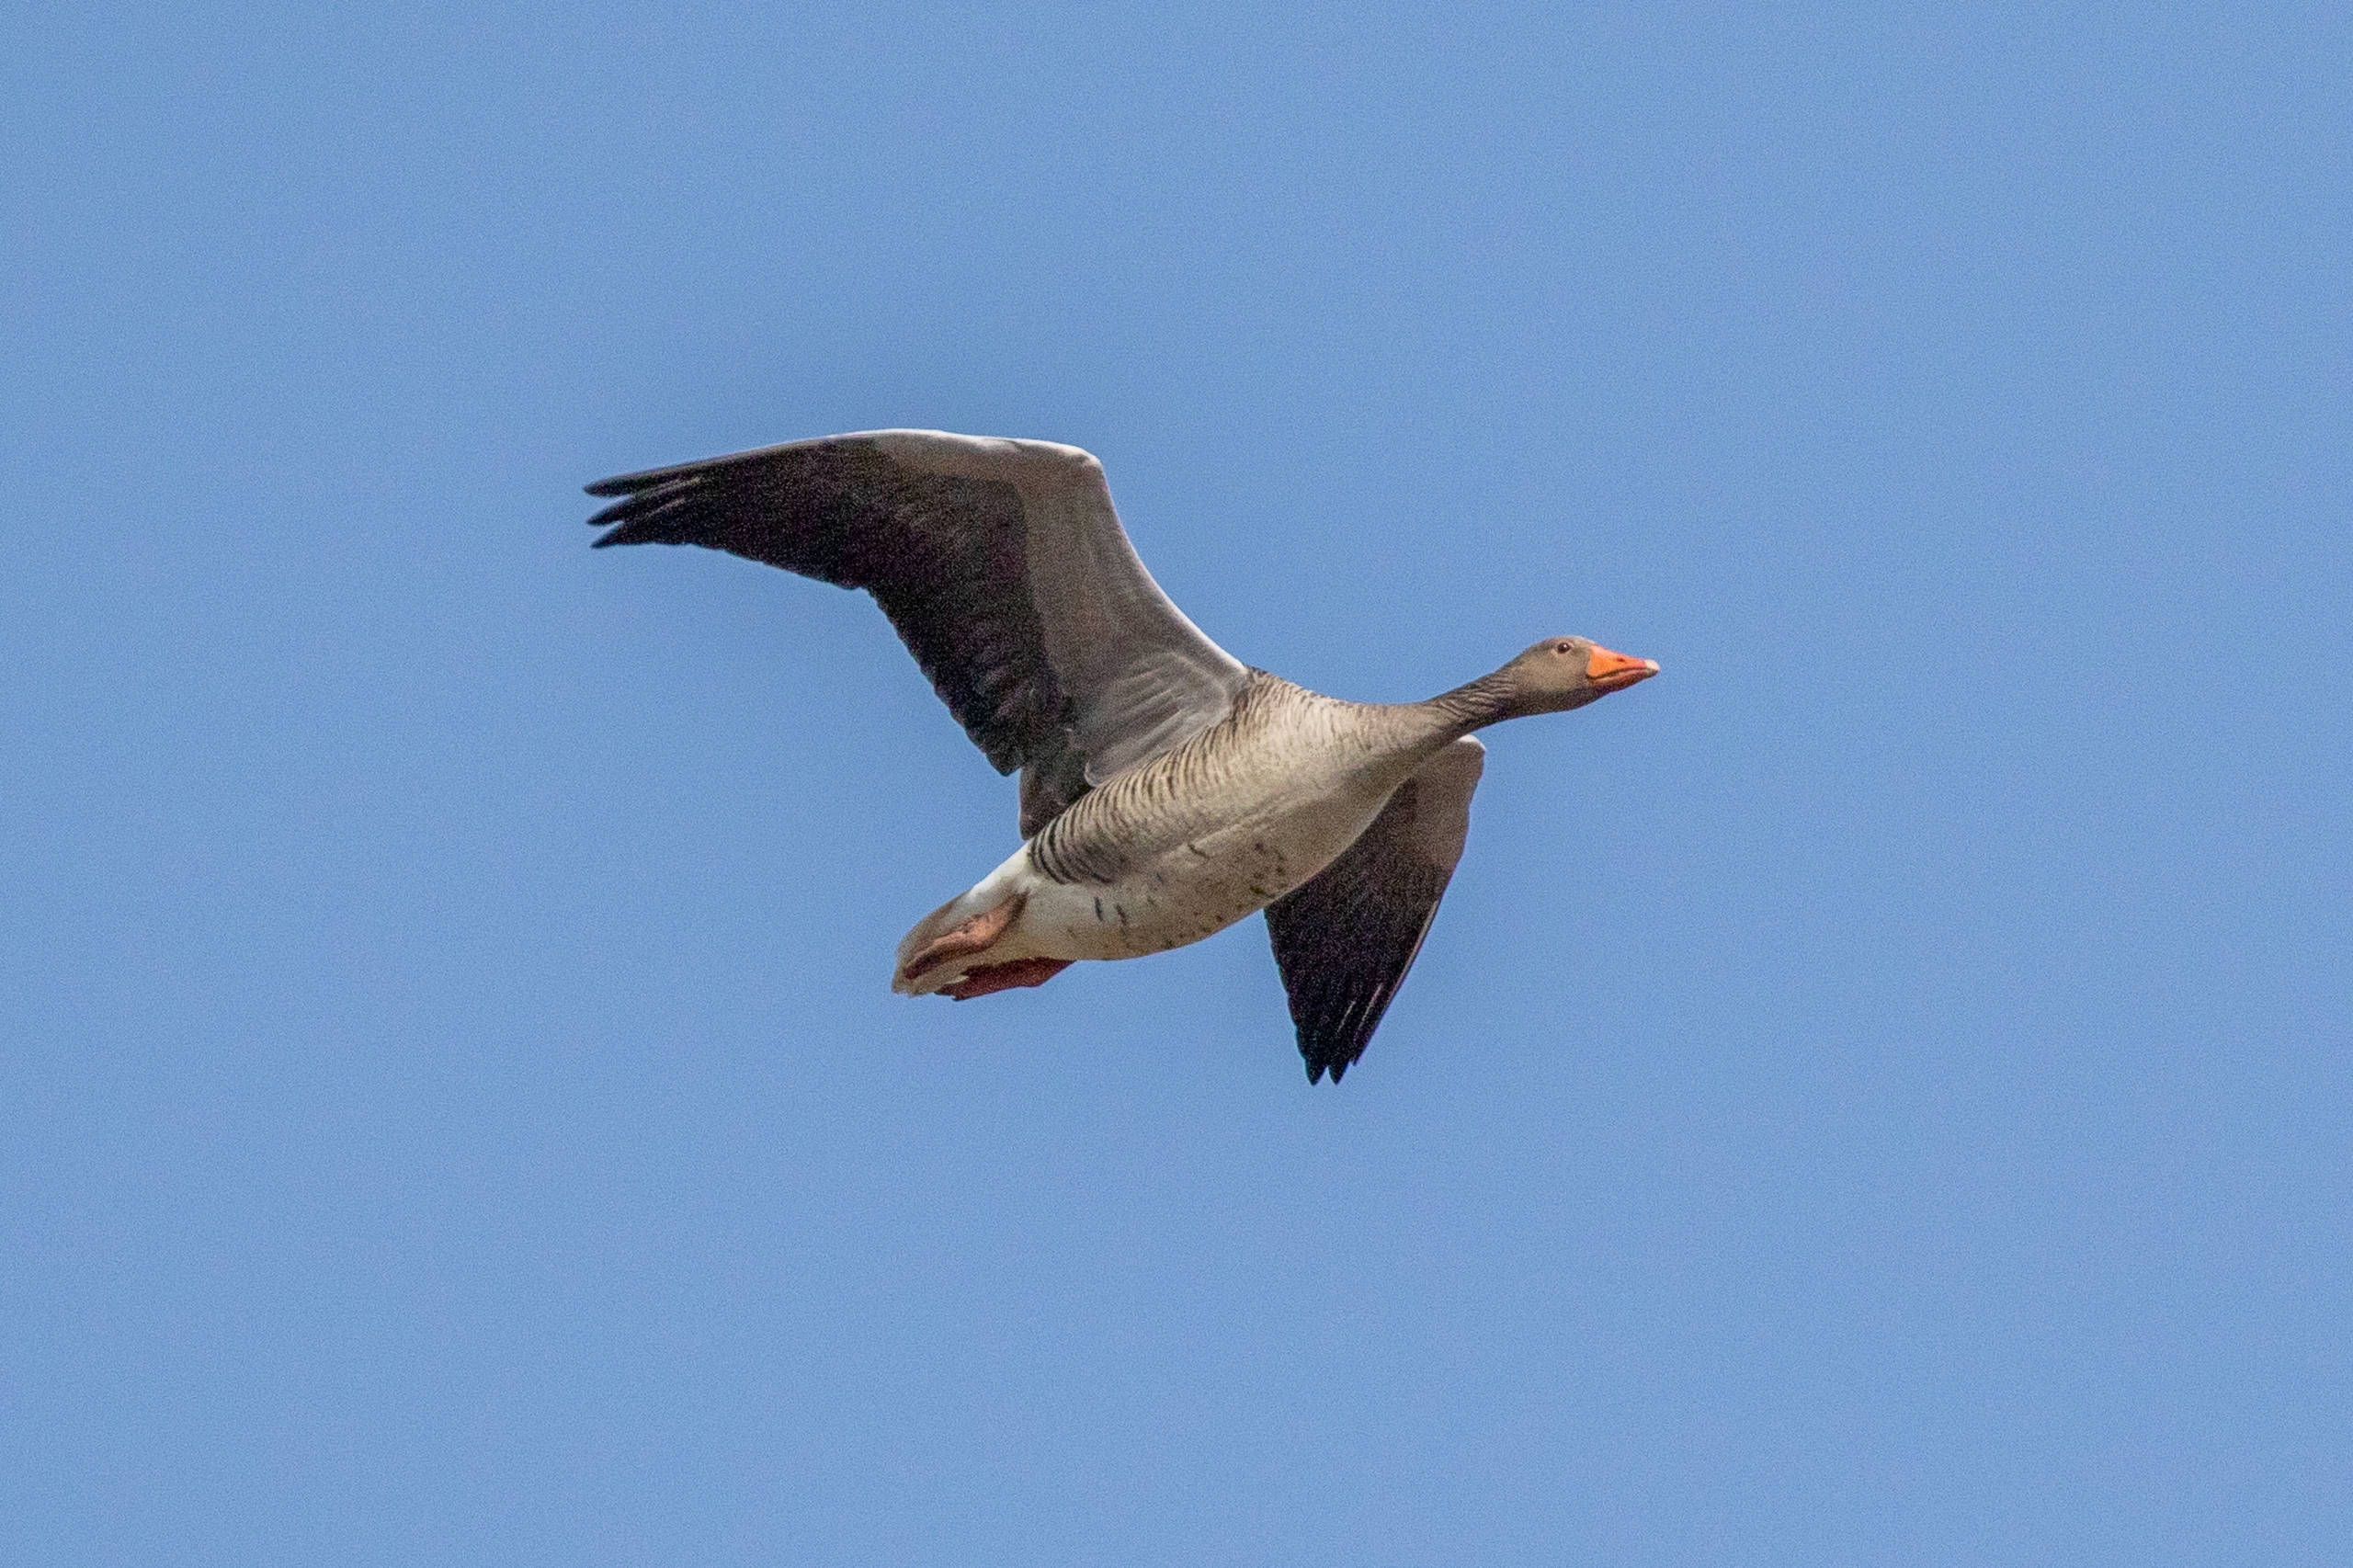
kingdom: Animalia
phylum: Chordata
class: Aves
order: Anseriformes
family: Anatidae
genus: Anser
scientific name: Anser anser
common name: Grågås
